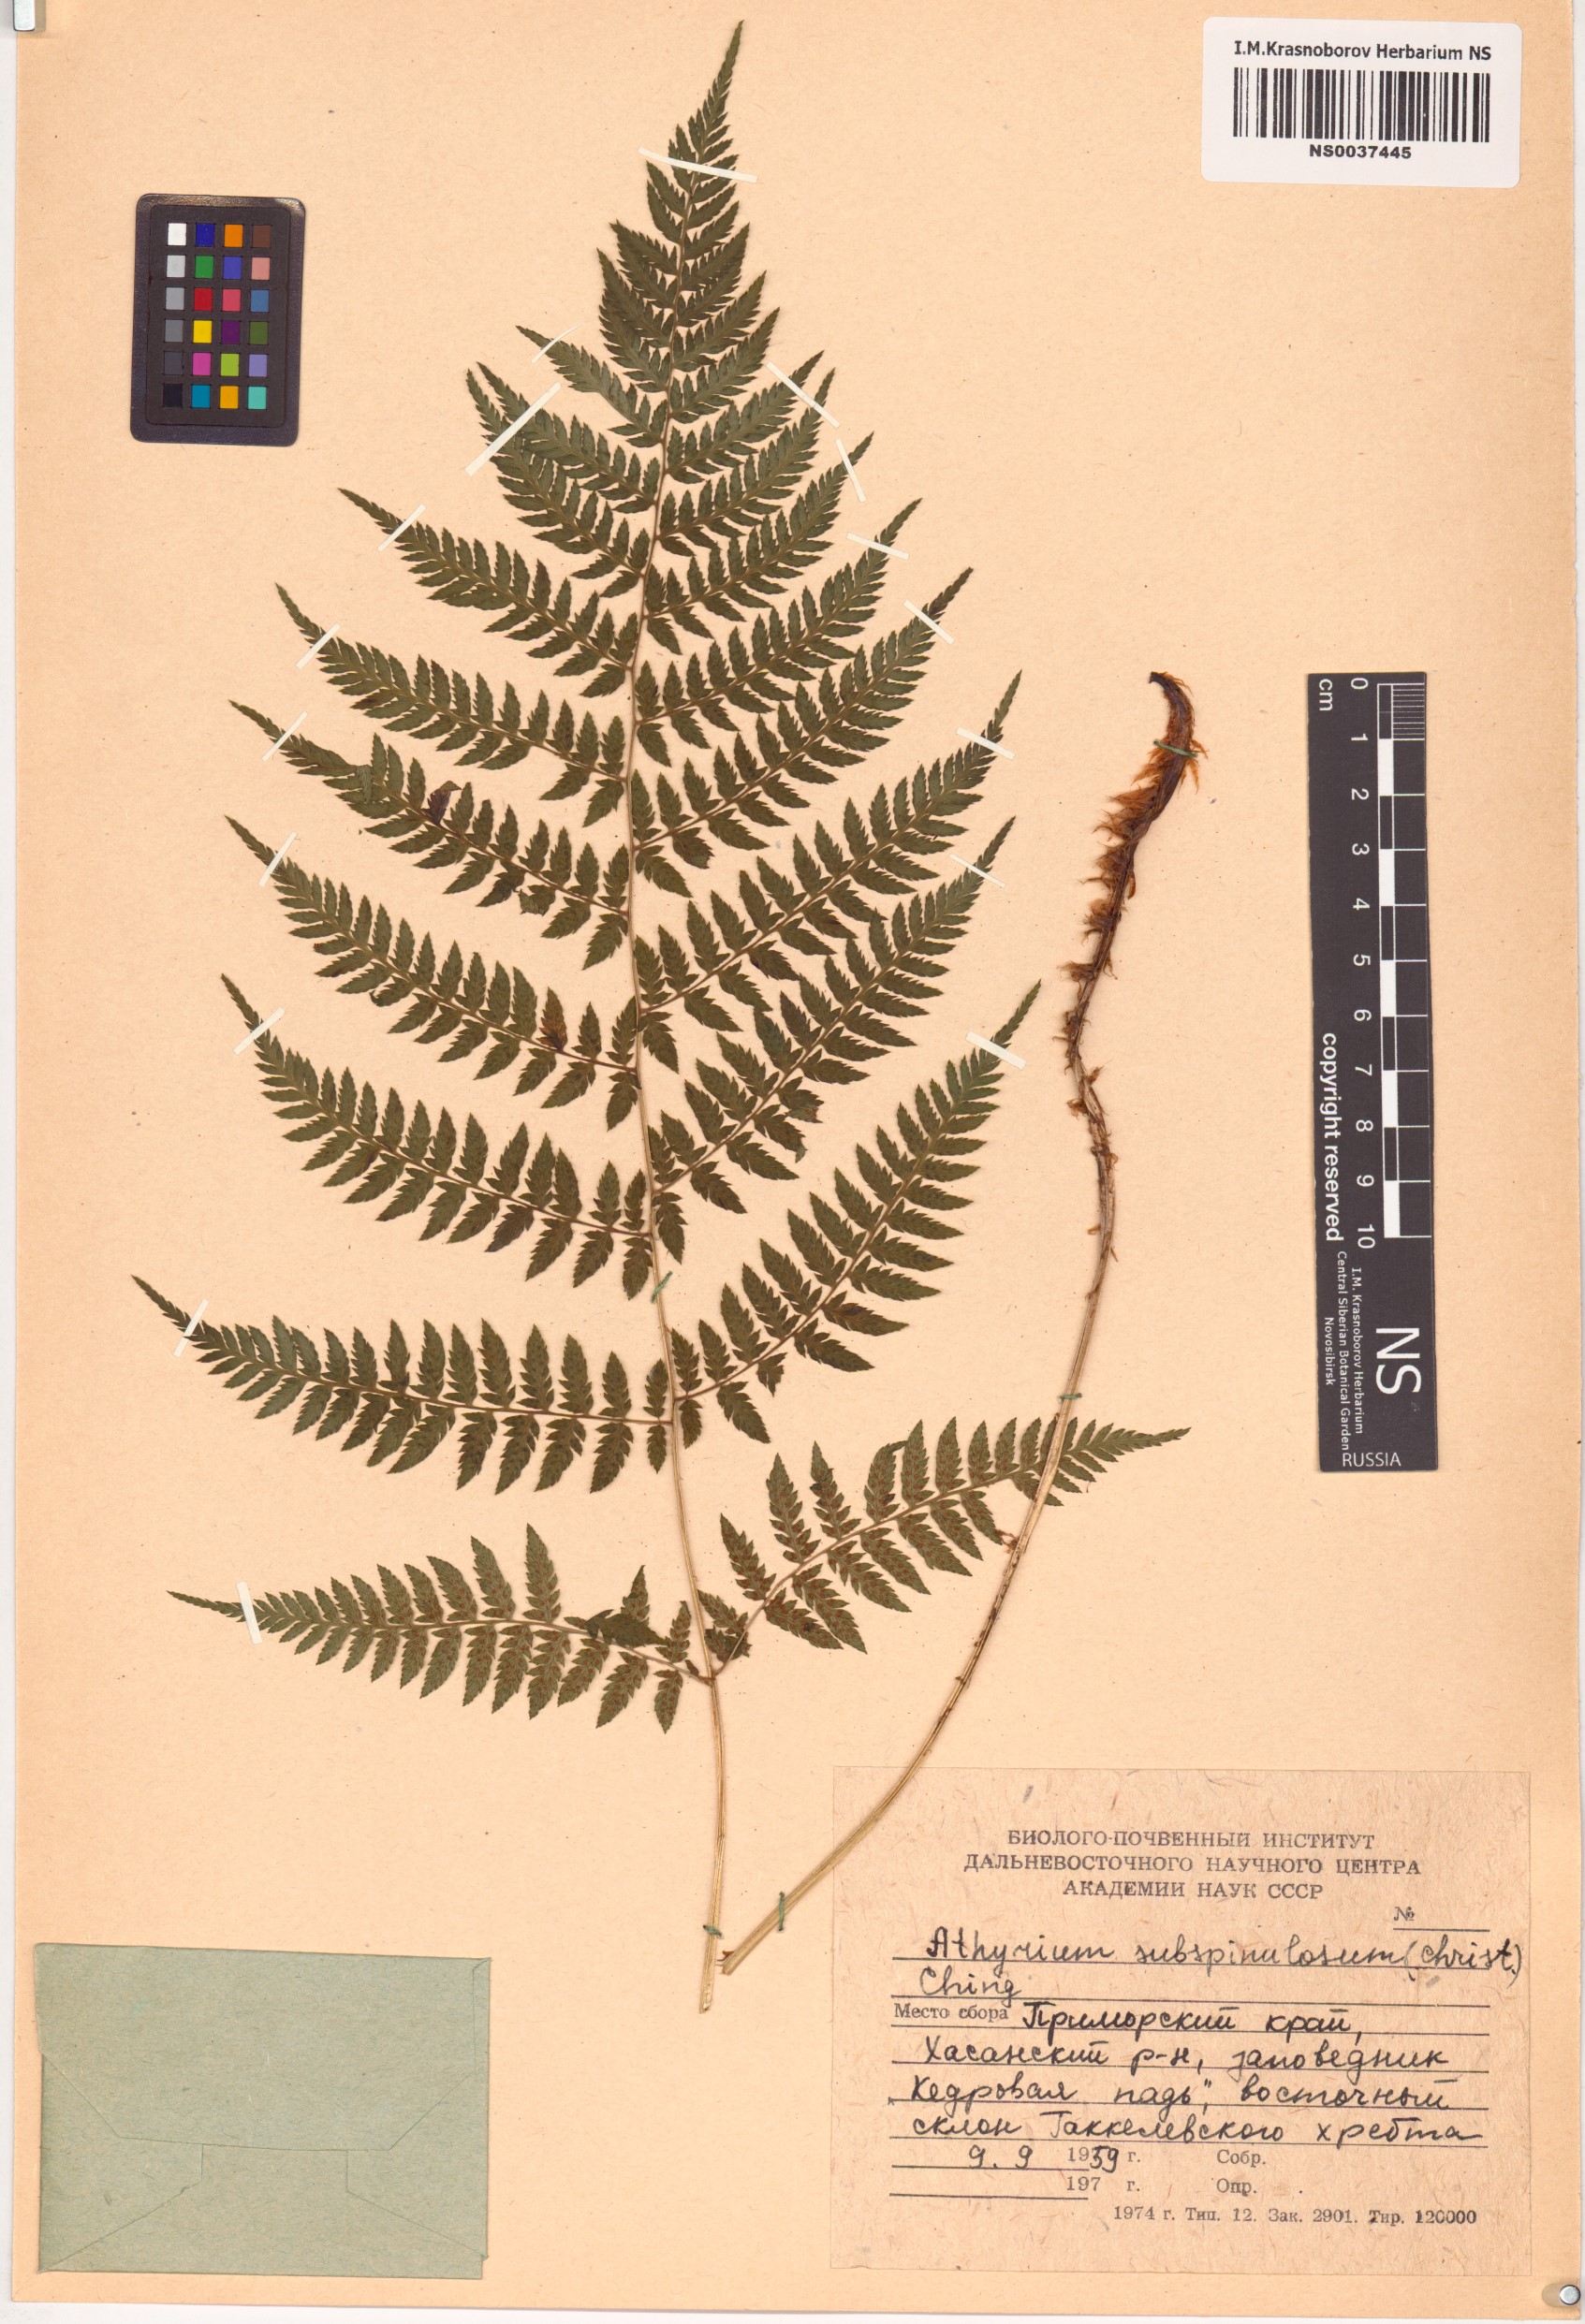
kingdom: Plantae
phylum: Tracheophyta
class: Polypodiopsida
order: Polypodiales
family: Athyriaceae
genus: Athyrium
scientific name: Athyrium yokoscense
